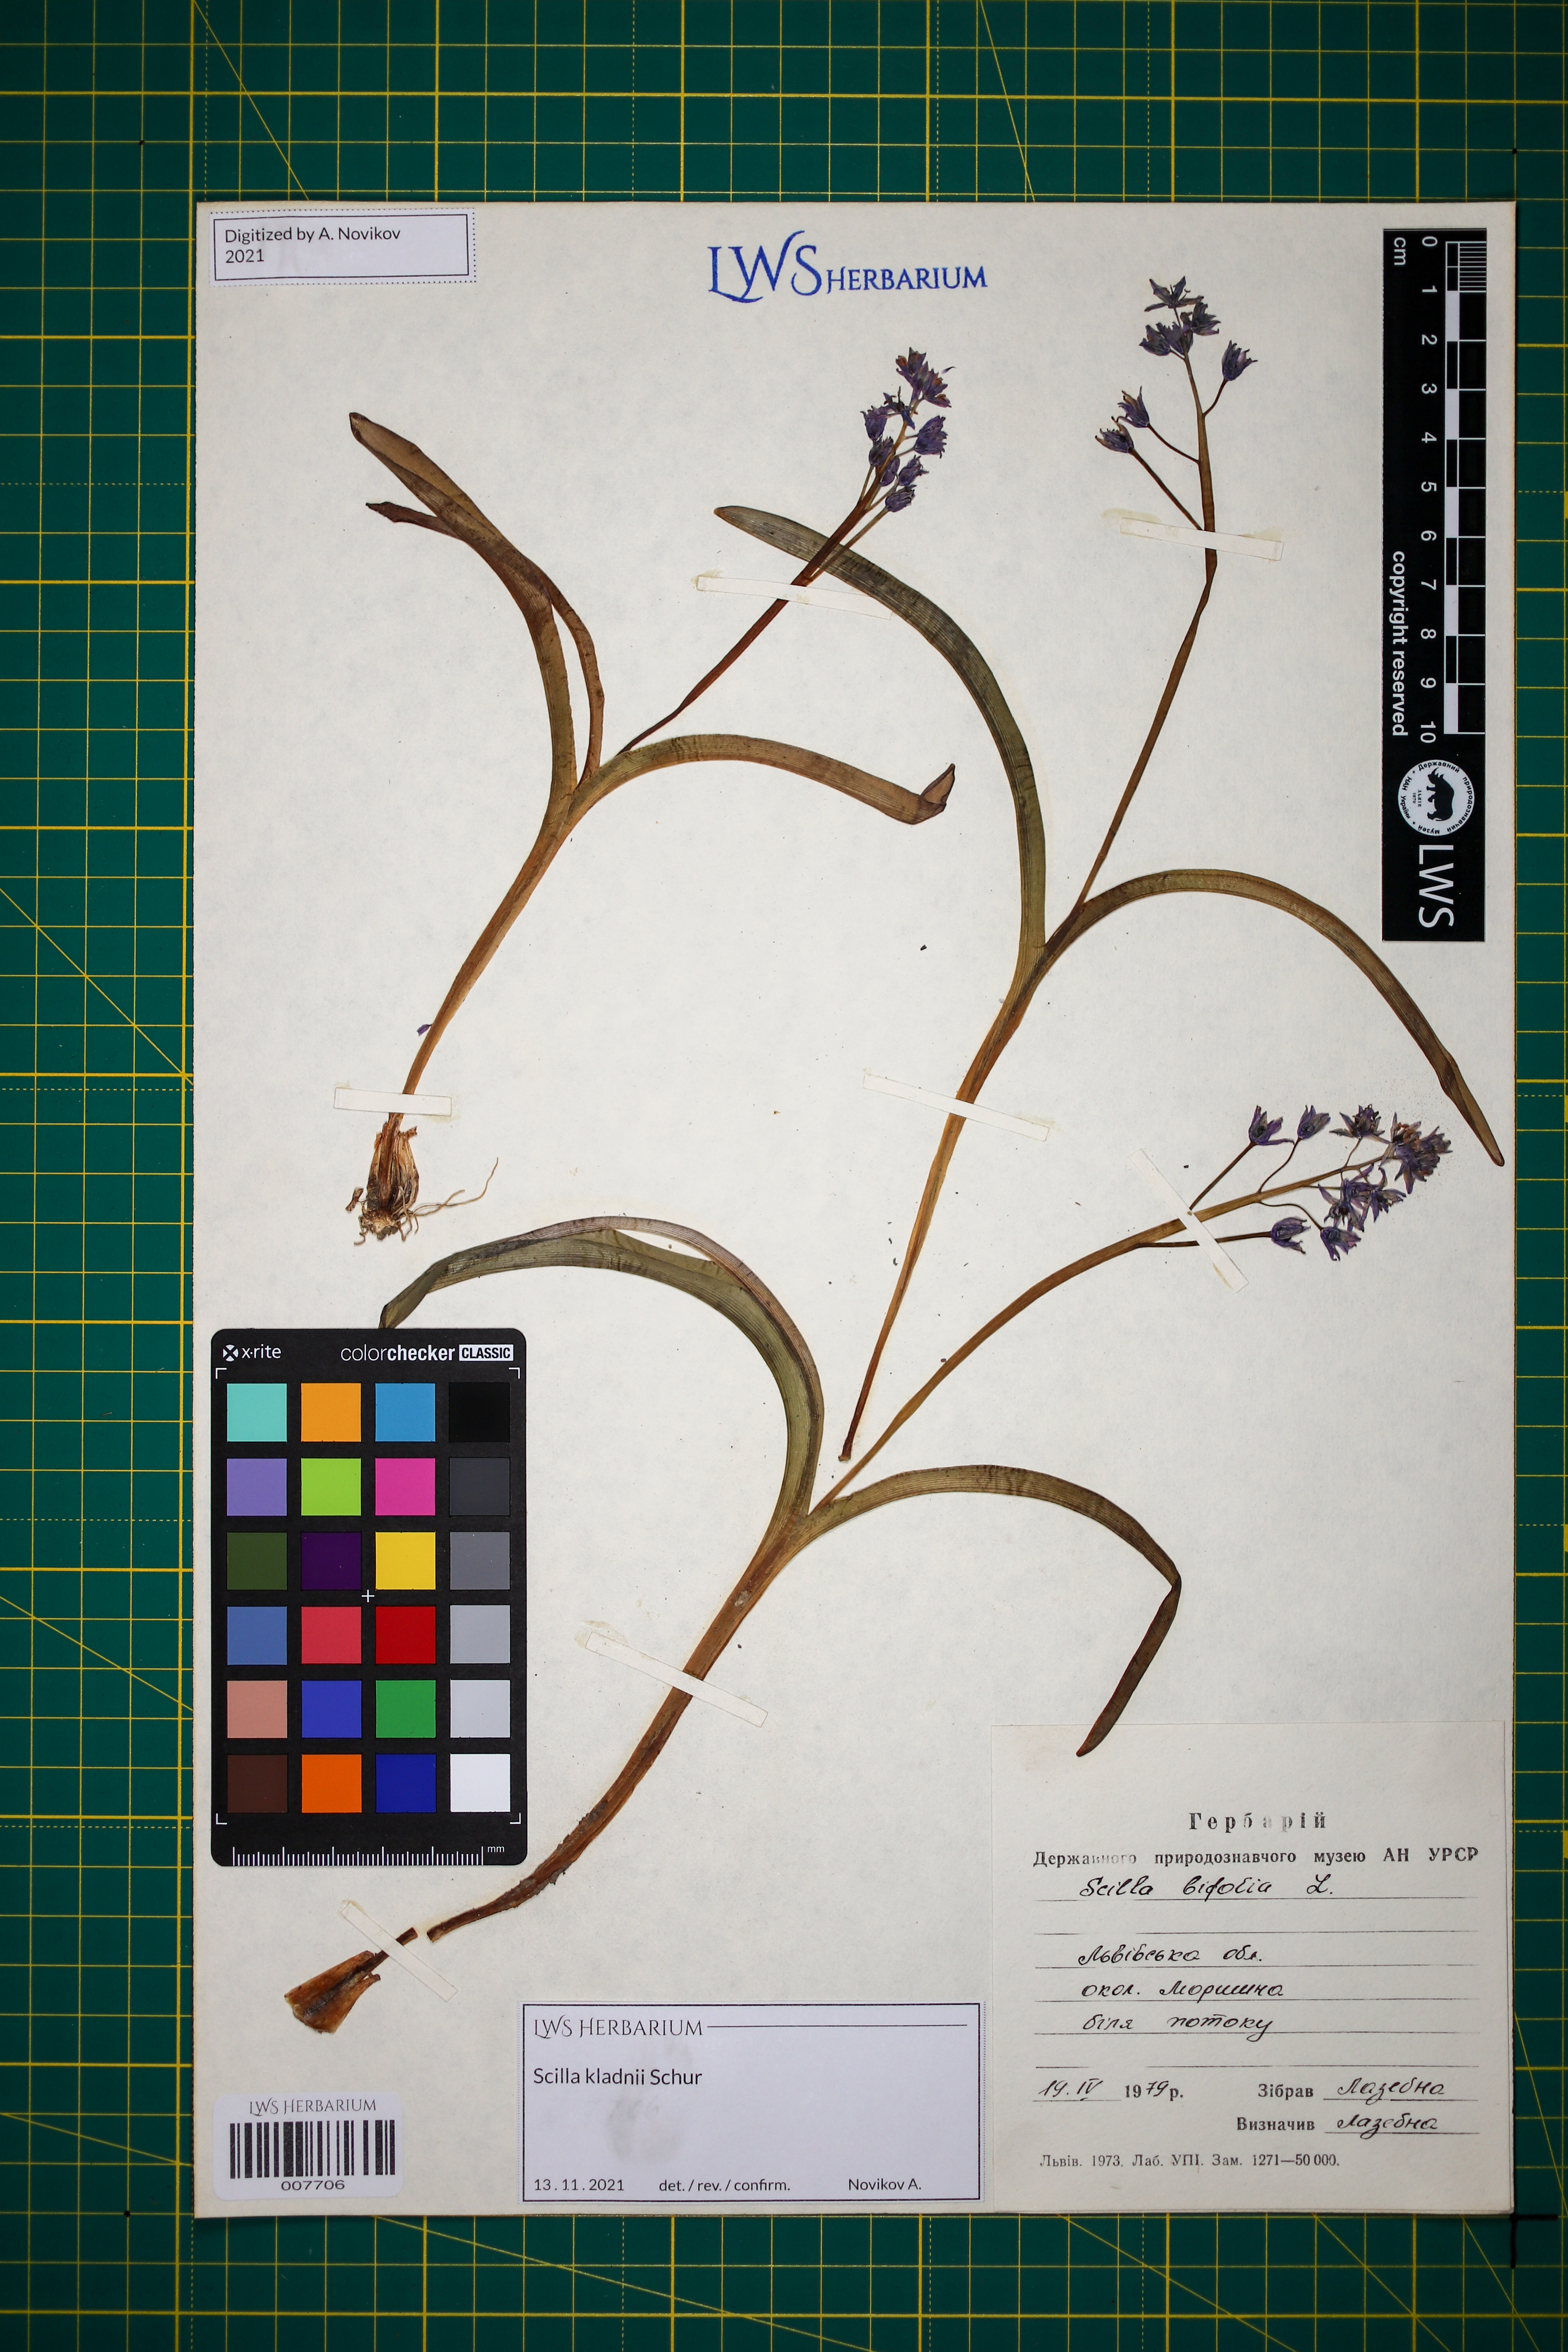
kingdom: Plantae
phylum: Tracheophyta
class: Liliopsida
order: Asparagales
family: Asparagaceae
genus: Scilla
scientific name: Scilla kladnii
